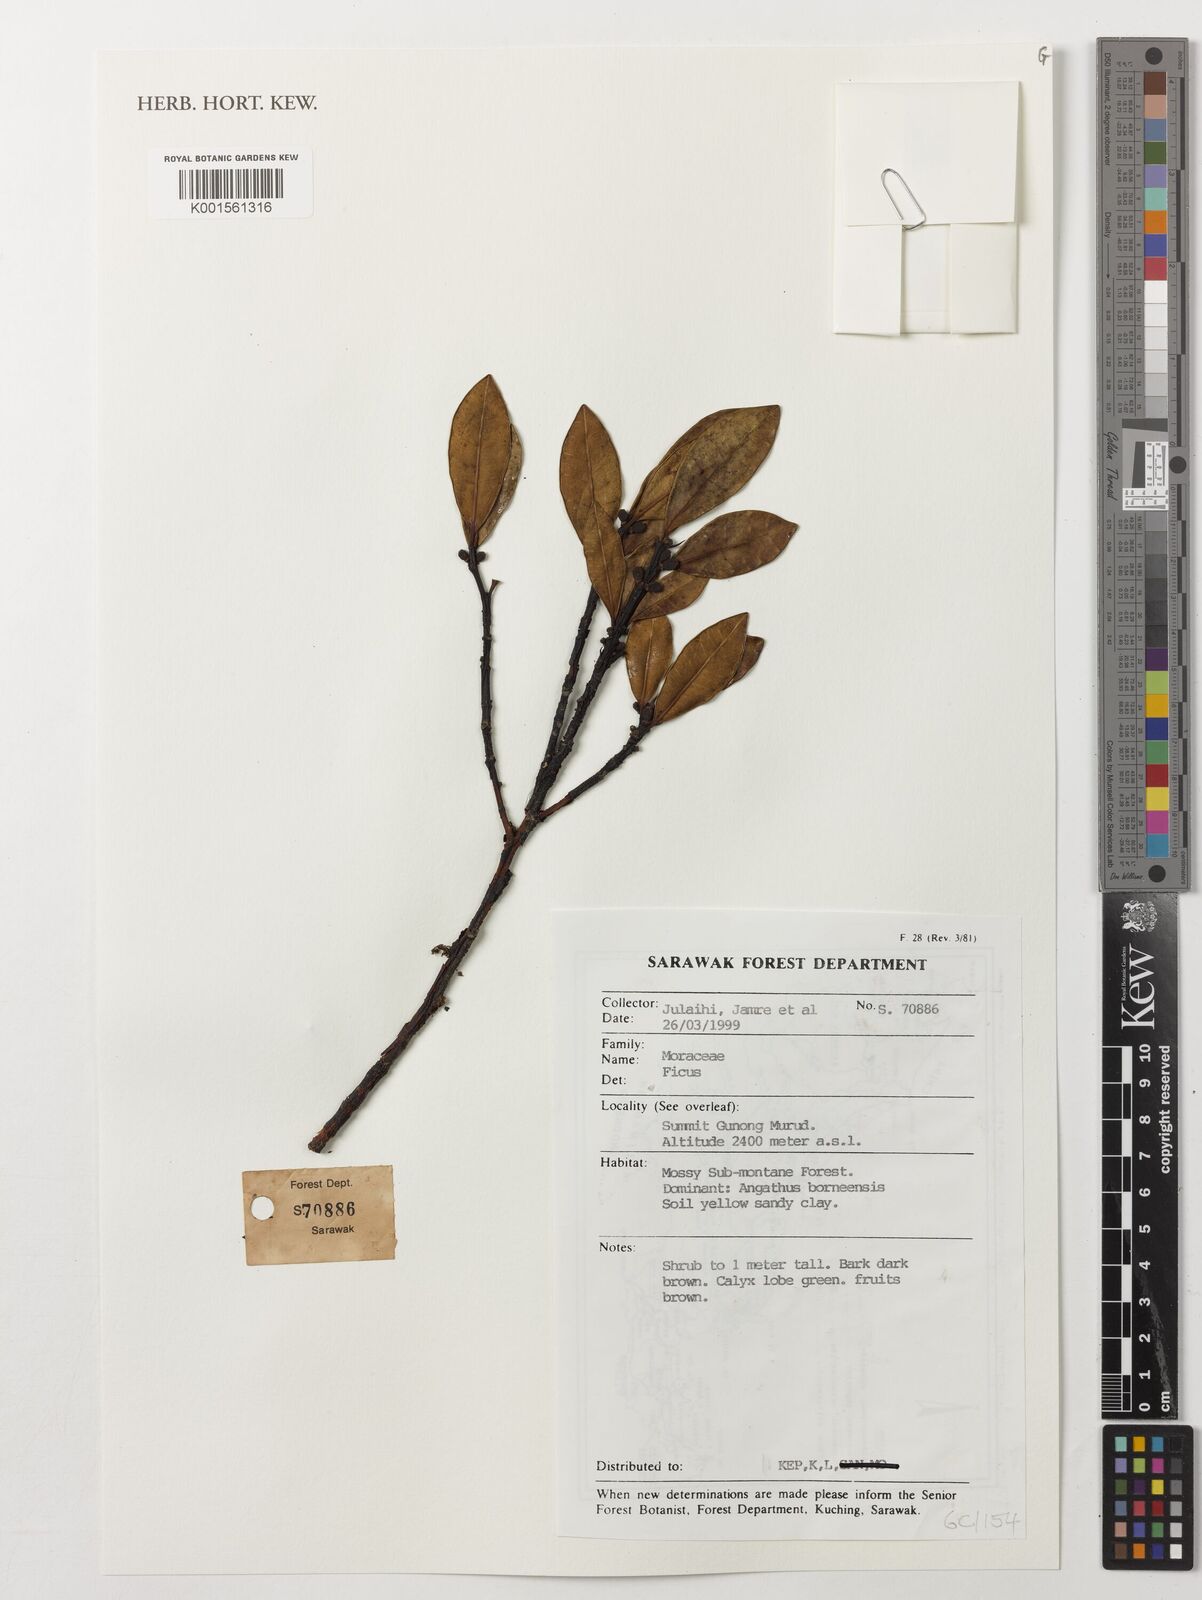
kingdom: Plantae
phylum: Tracheophyta
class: Magnoliopsida
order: Rosales
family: Moraceae
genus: Ficus
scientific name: Ficus
